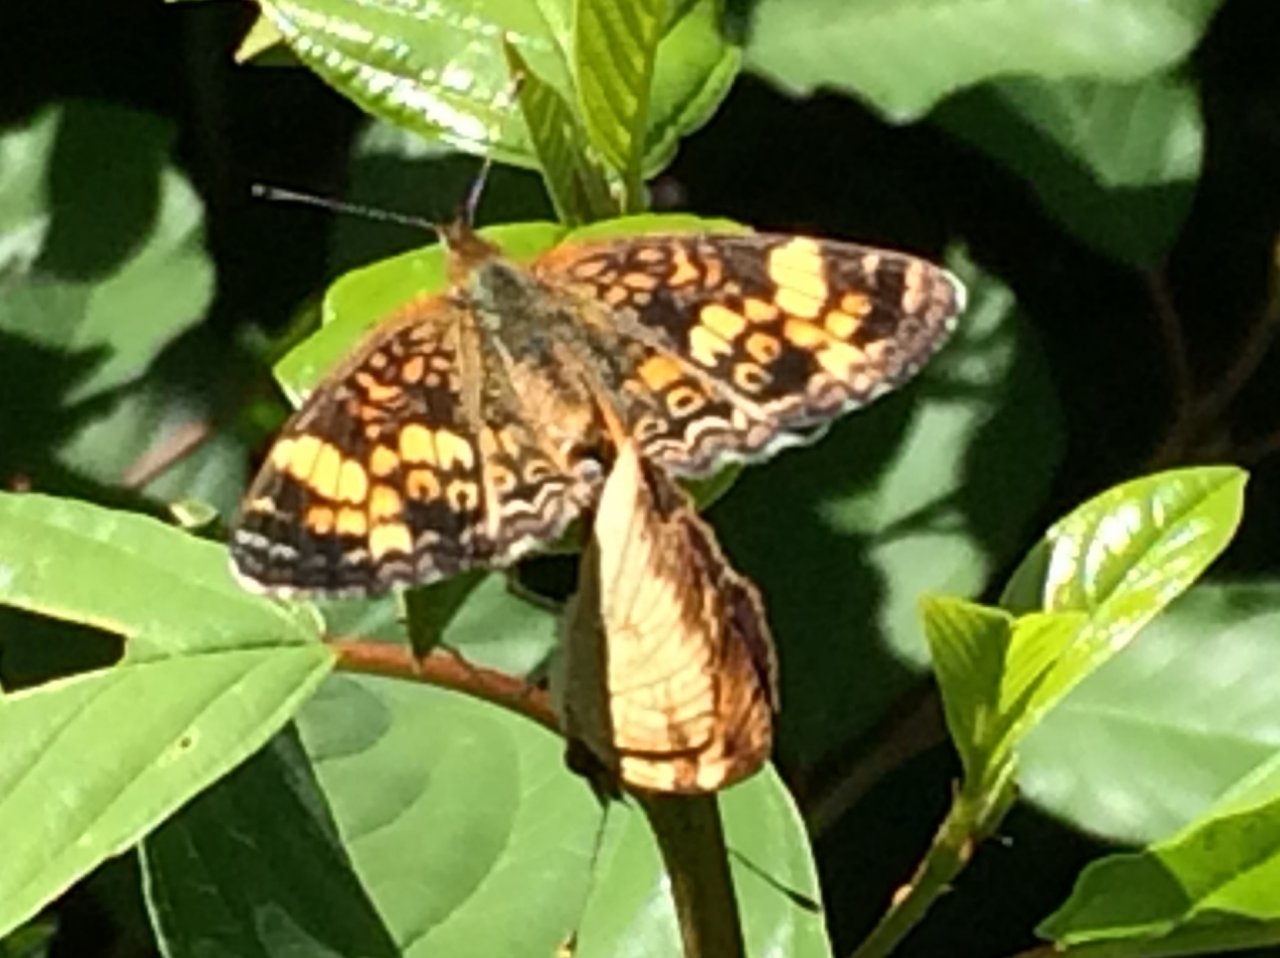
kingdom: Animalia
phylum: Arthropoda
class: Insecta
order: Lepidoptera
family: Nymphalidae
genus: Phyciodes
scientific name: Phyciodes
